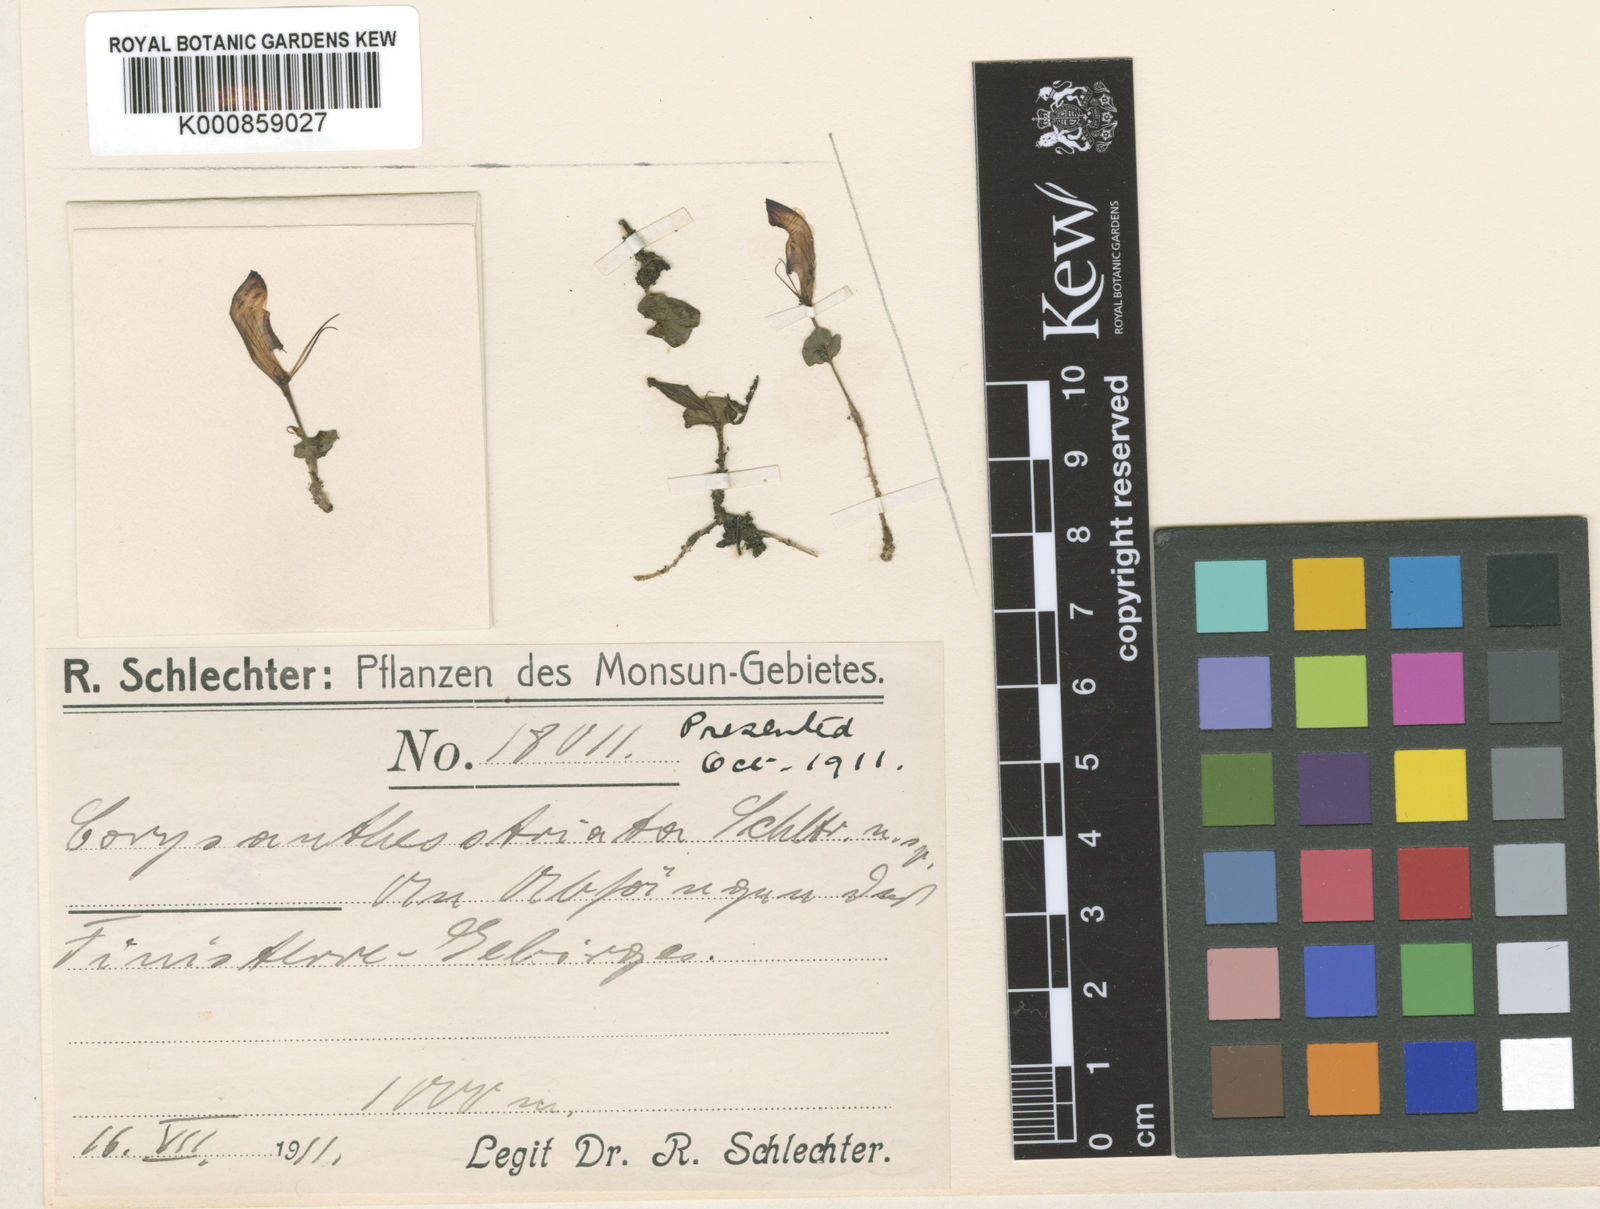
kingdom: Plantae
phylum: Tracheophyta
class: Liliopsida
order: Asparagales
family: Orchidaceae
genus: Corybas
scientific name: Corybas striatus
